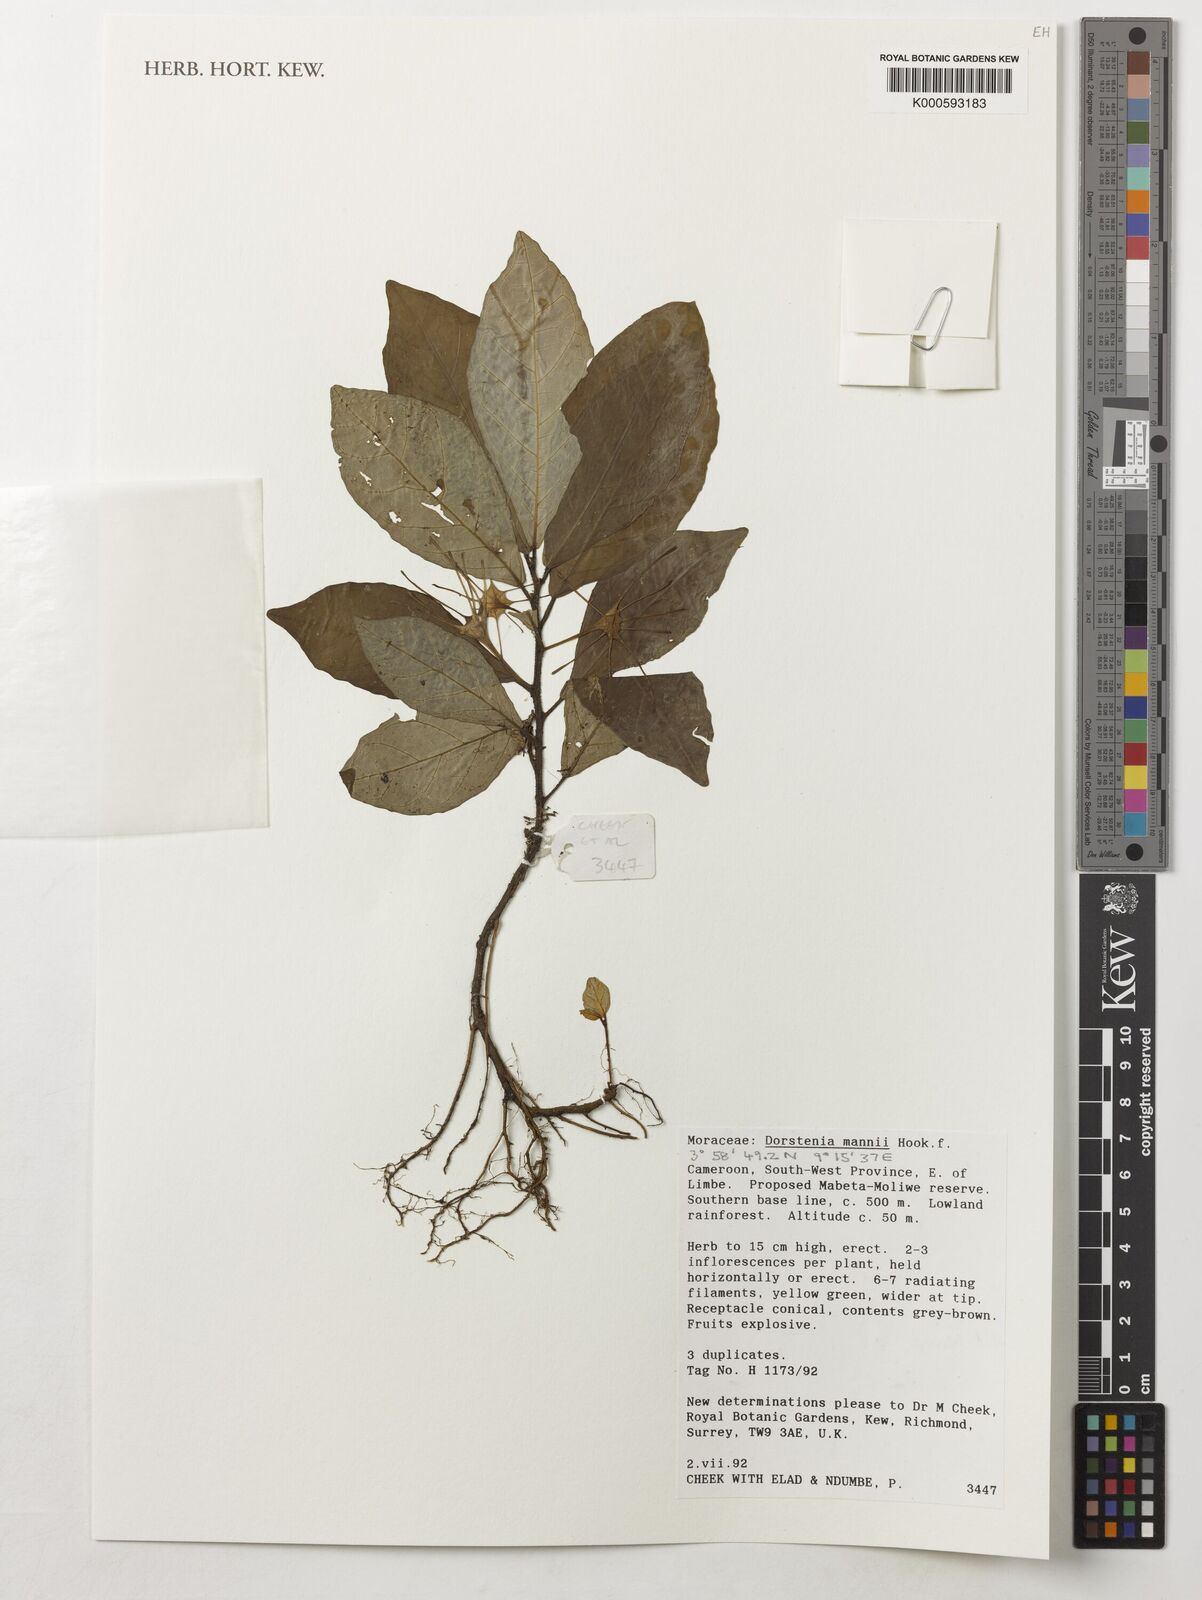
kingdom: Plantae
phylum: Tracheophyta
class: Magnoliopsida
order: Rosales
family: Moraceae
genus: Dorstenia
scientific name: Dorstenia mannii
